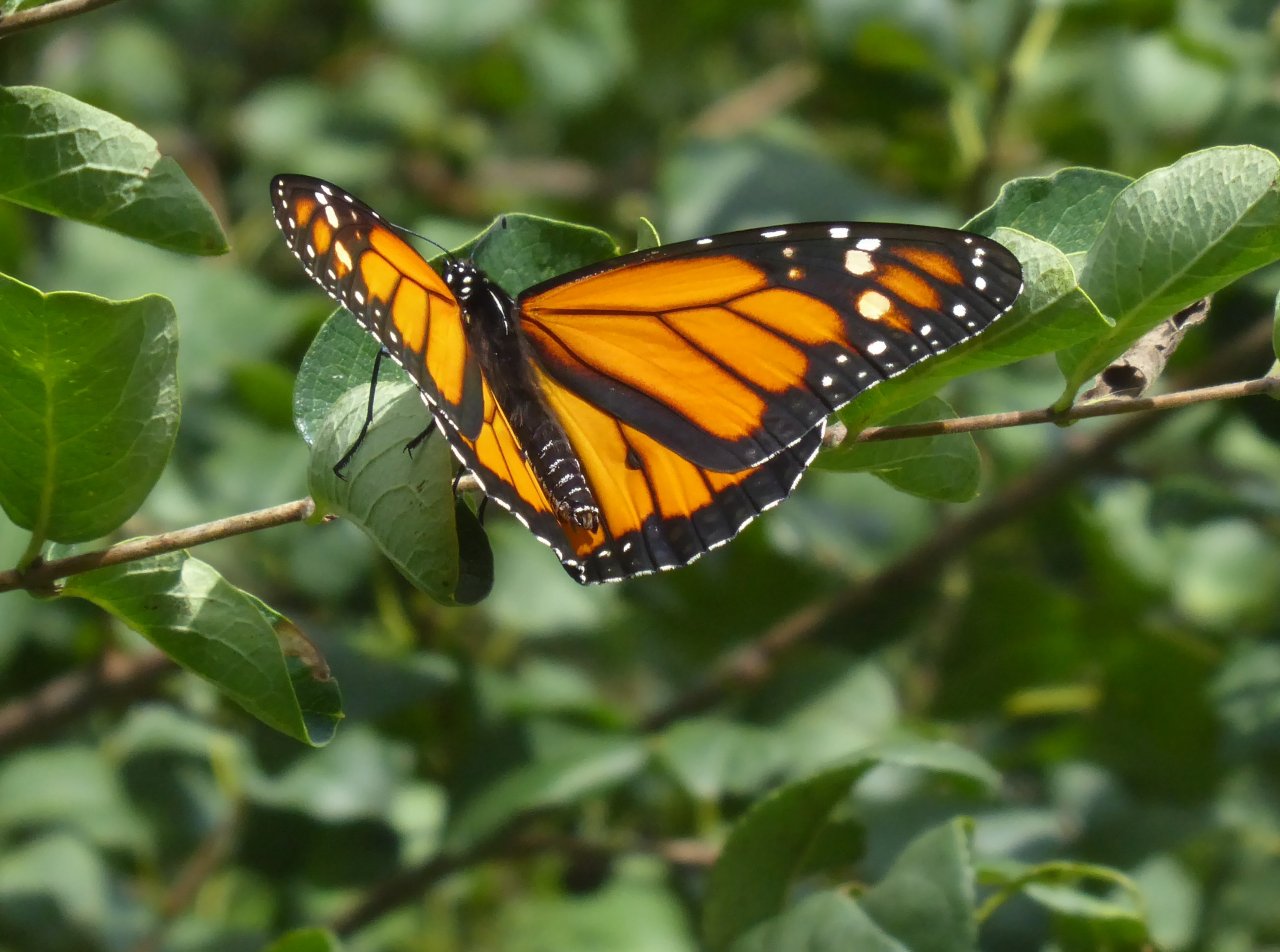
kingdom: Animalia
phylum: Arthropoda
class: Insecta
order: Lepidoptera
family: Nymphalidae
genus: Danaus
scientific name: Danaus plexippus
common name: Monarch
